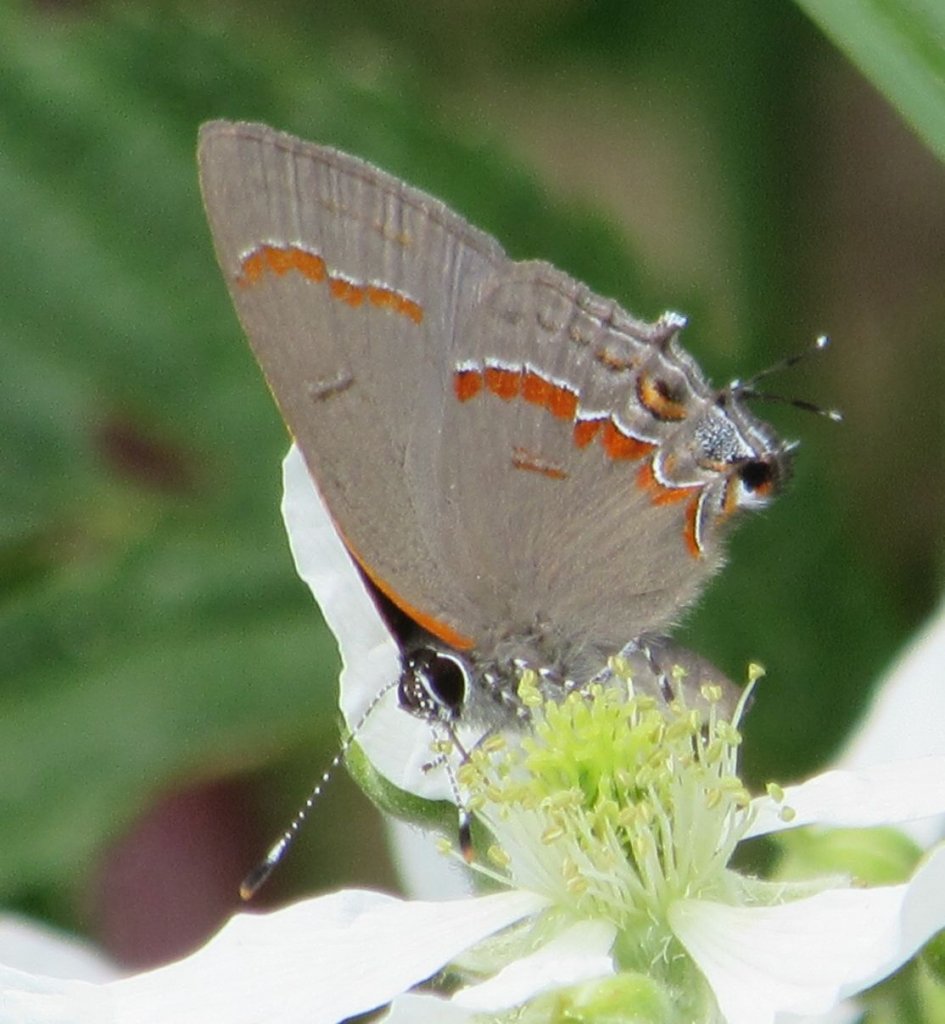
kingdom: Animalia
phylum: Arthropoda
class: Insecta
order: Lepidoptera
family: Lycaenidae
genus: Calycopis
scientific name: Calycopis cecrops
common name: Red-banded Hairstreak
